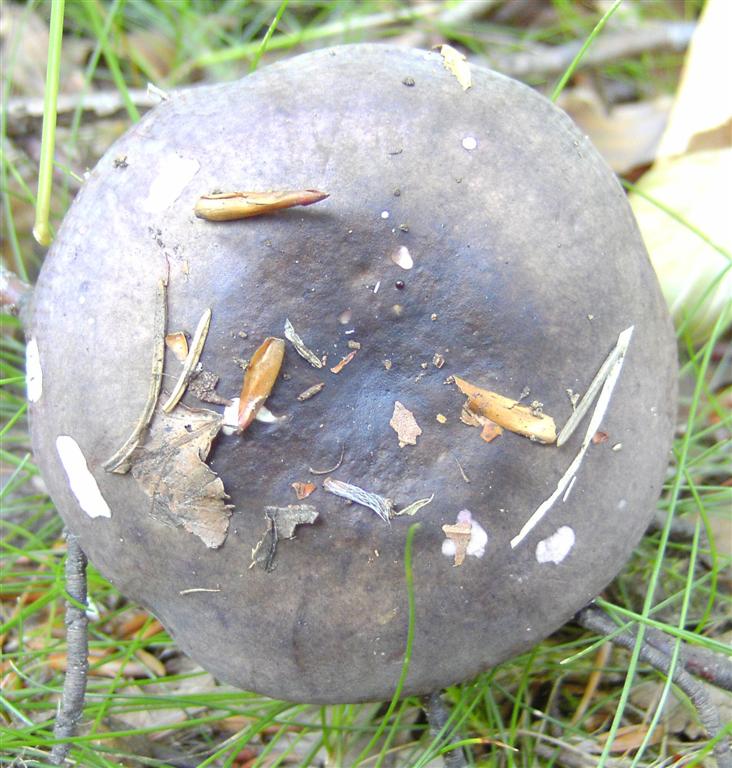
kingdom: Fungi
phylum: Basidiomycota
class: Agaricomycetes
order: Russulales
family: Russulaceae
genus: Russula
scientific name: Russula
